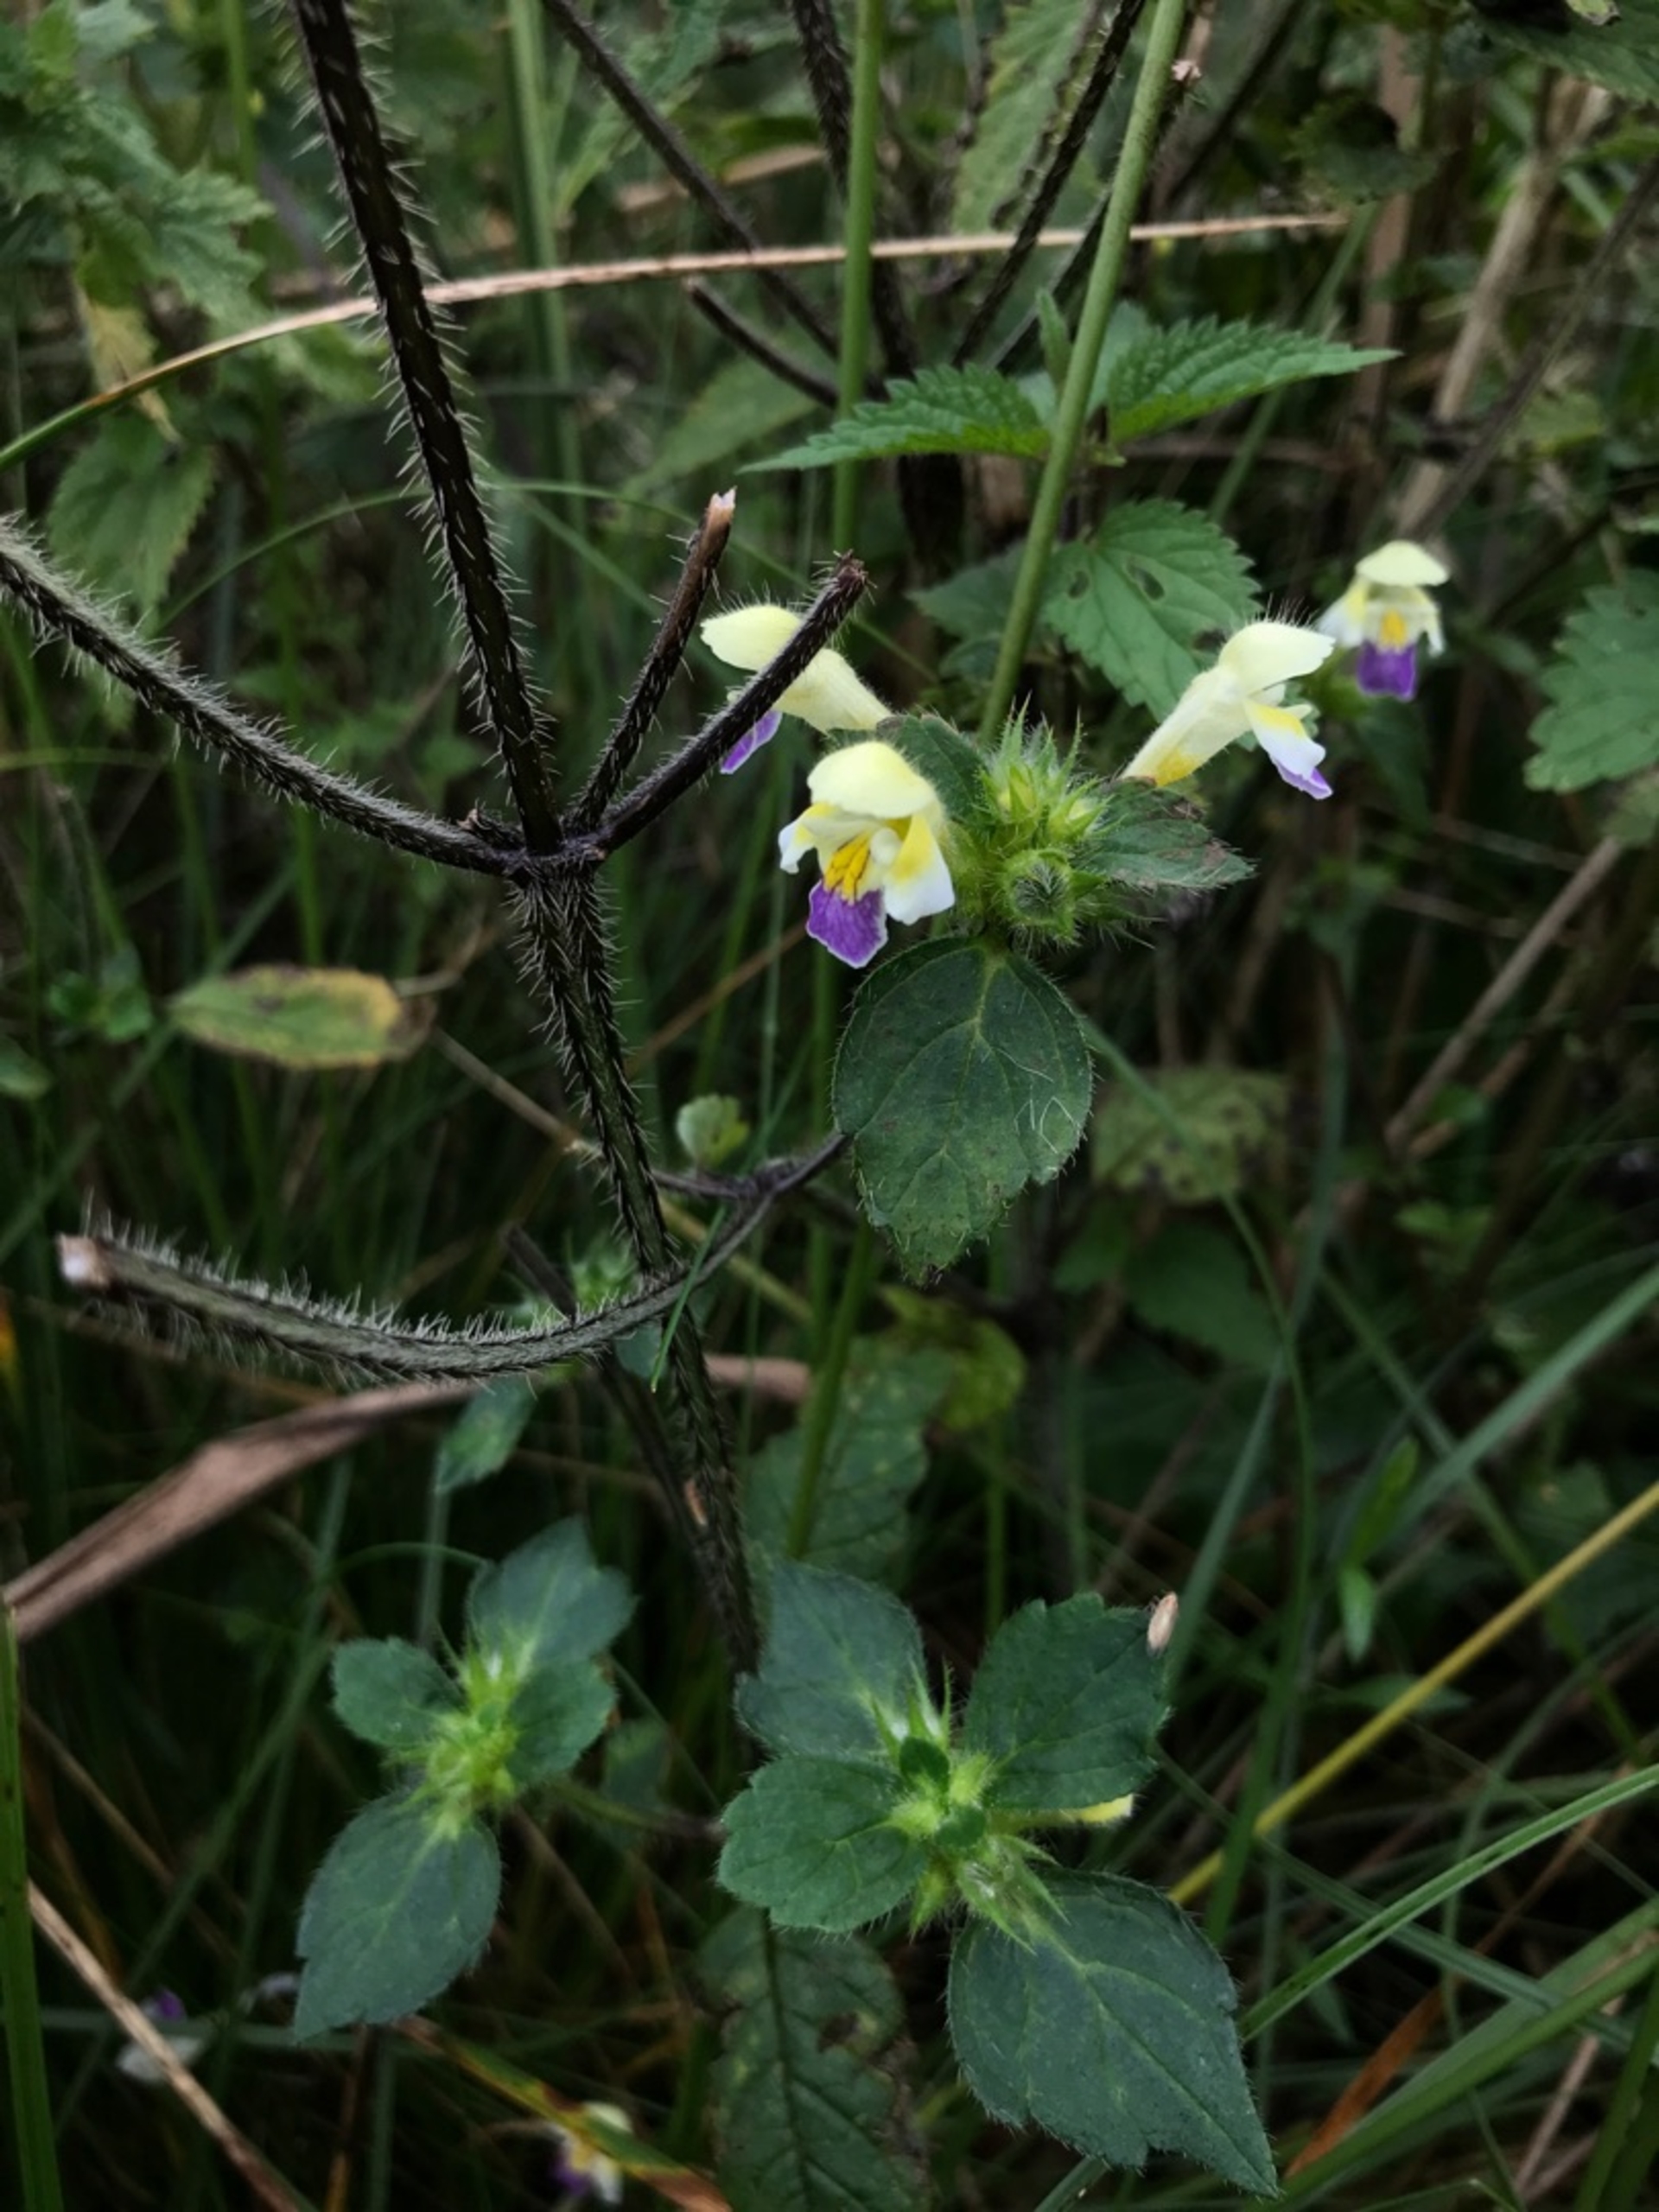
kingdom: Plantae
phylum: Tracheophyta
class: Magnoliopsida
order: Lamiales
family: Lamiaceae
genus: Galeopsis
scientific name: Galeopsis speciosa
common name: Hamp-hanekro
